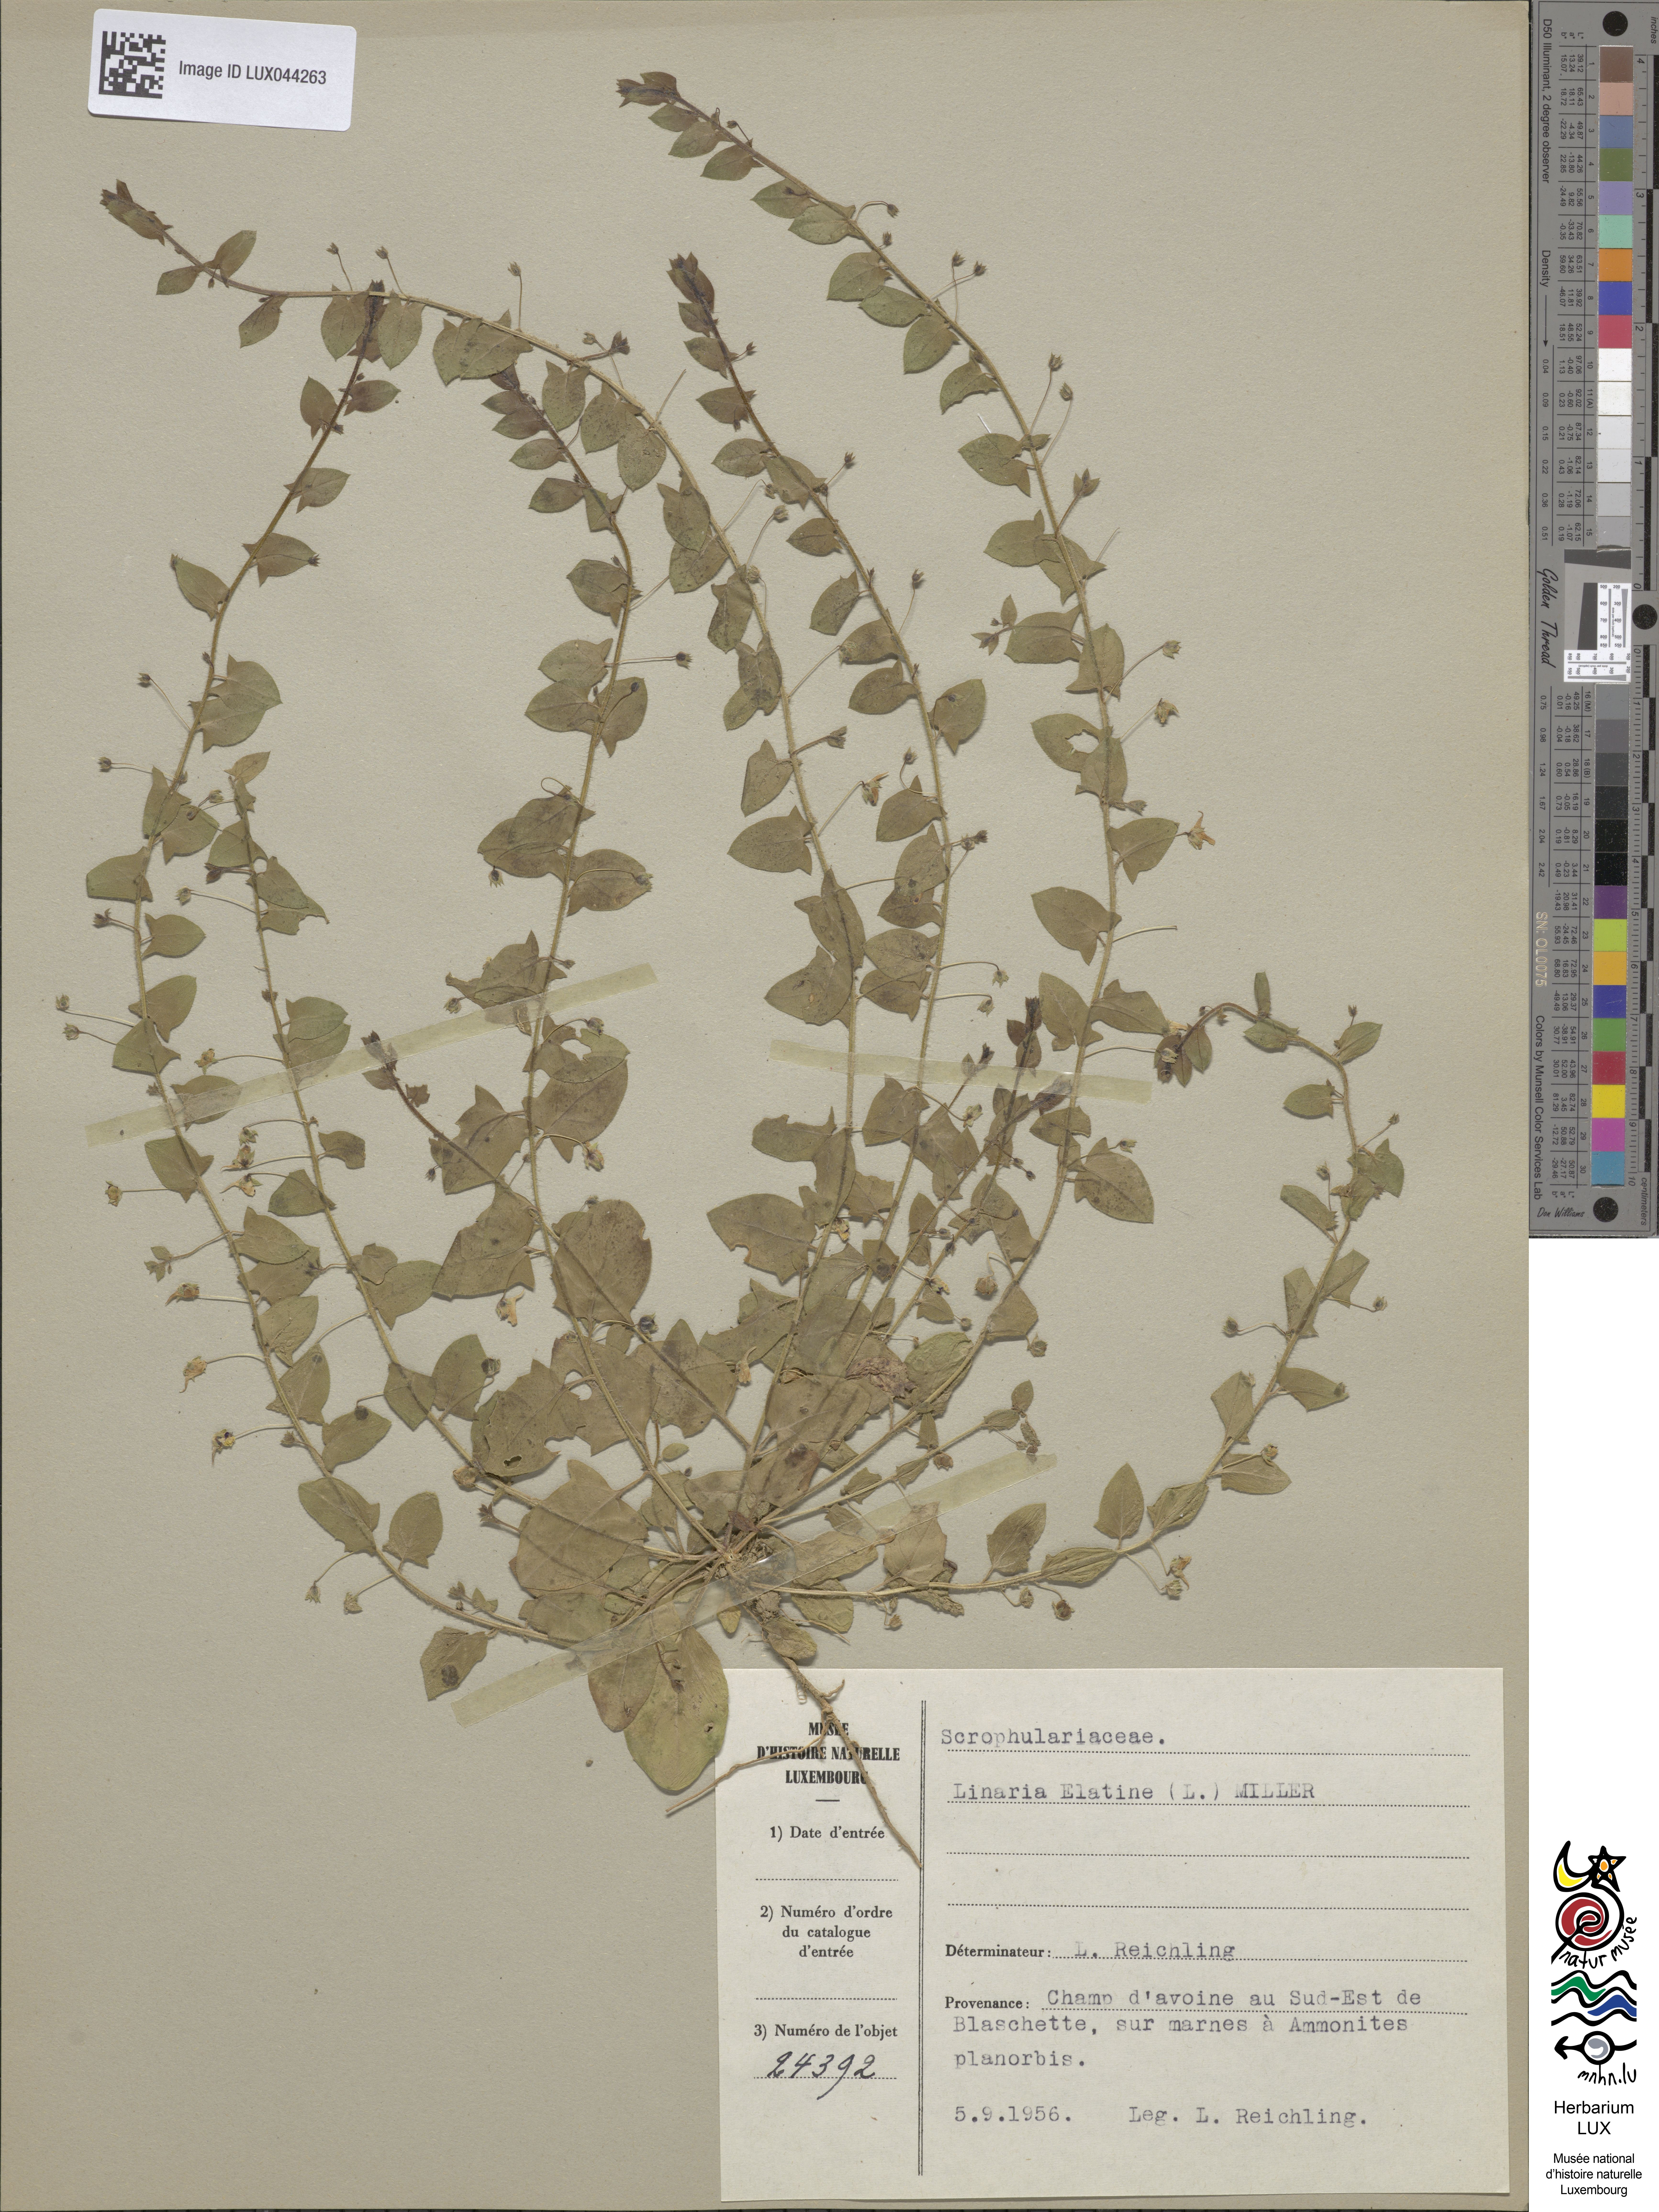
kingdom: Plantae
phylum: Tracheophyta
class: Magnoliopsida
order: Lamiales
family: Plantaginaceae
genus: Kickxia
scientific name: Kickxia elatine
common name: Sharp-leaved fluellen
